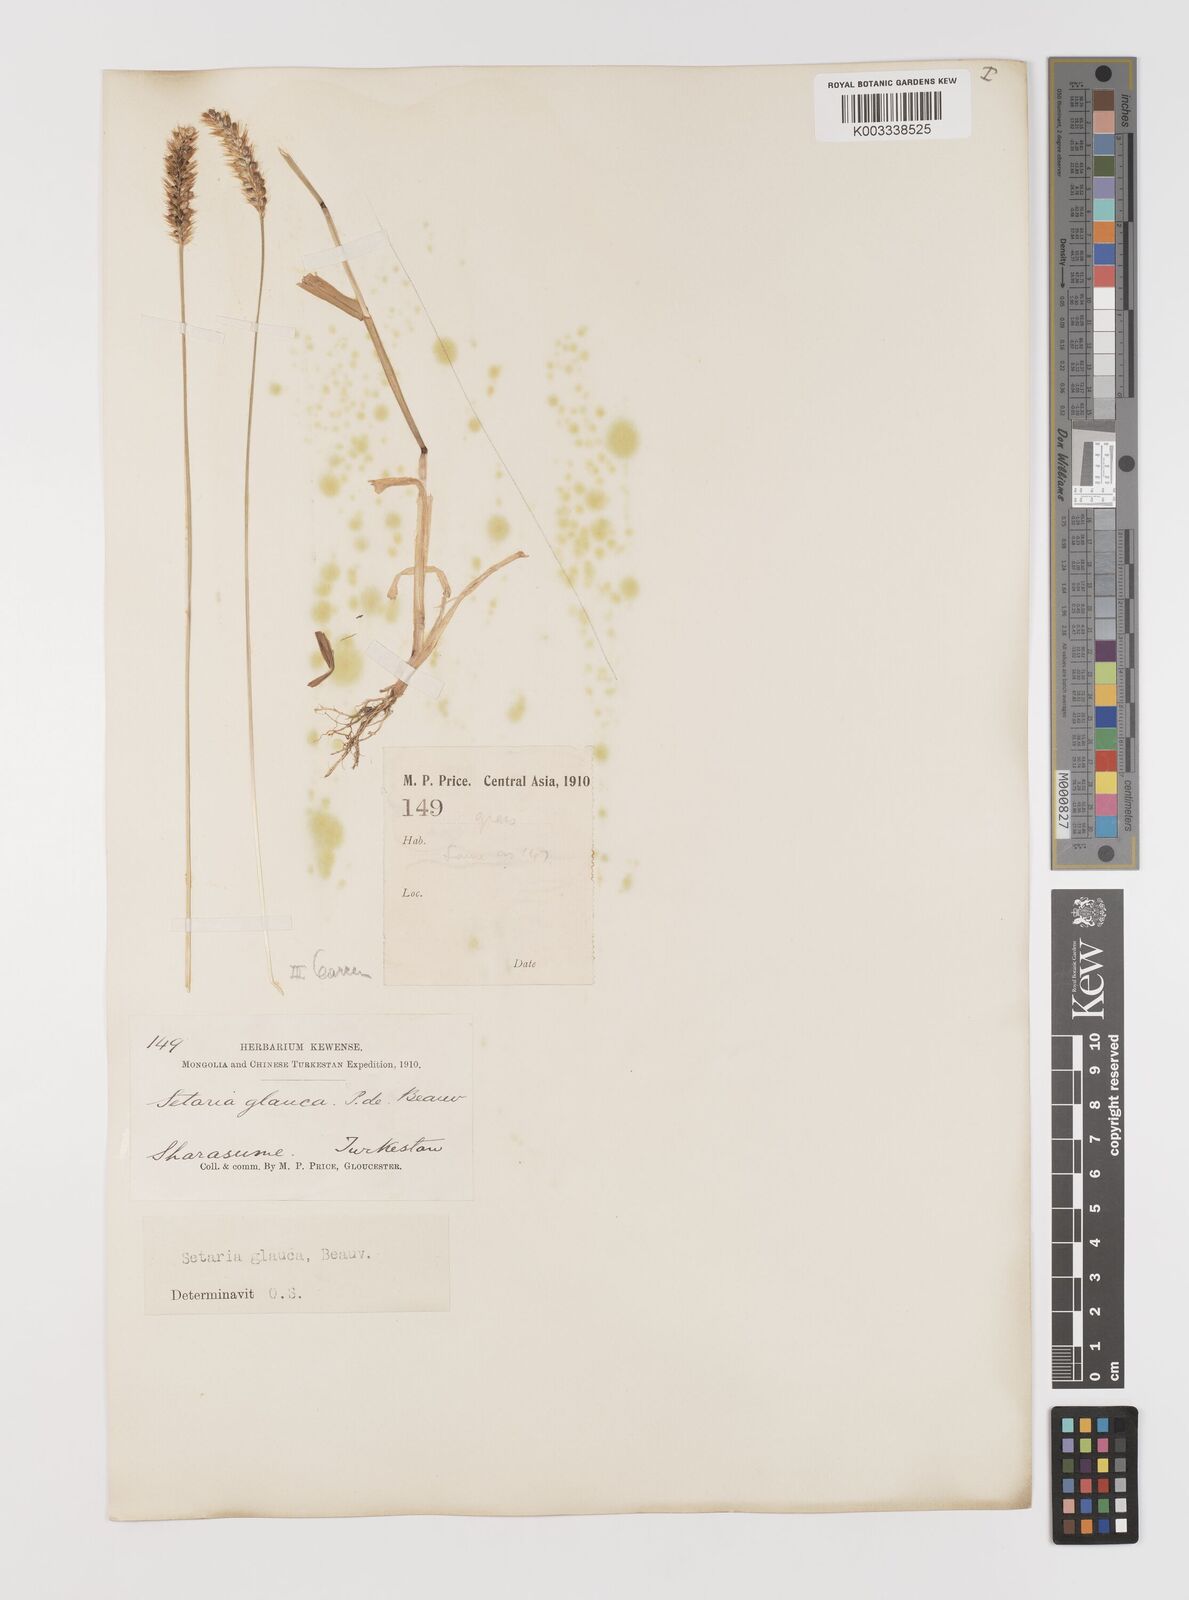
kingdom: Plantae
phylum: Tracheophyta
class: Liliopsida
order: Poales
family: Poaceae
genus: Cenchrus
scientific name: Cenchrus americanus
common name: Pearl millet
